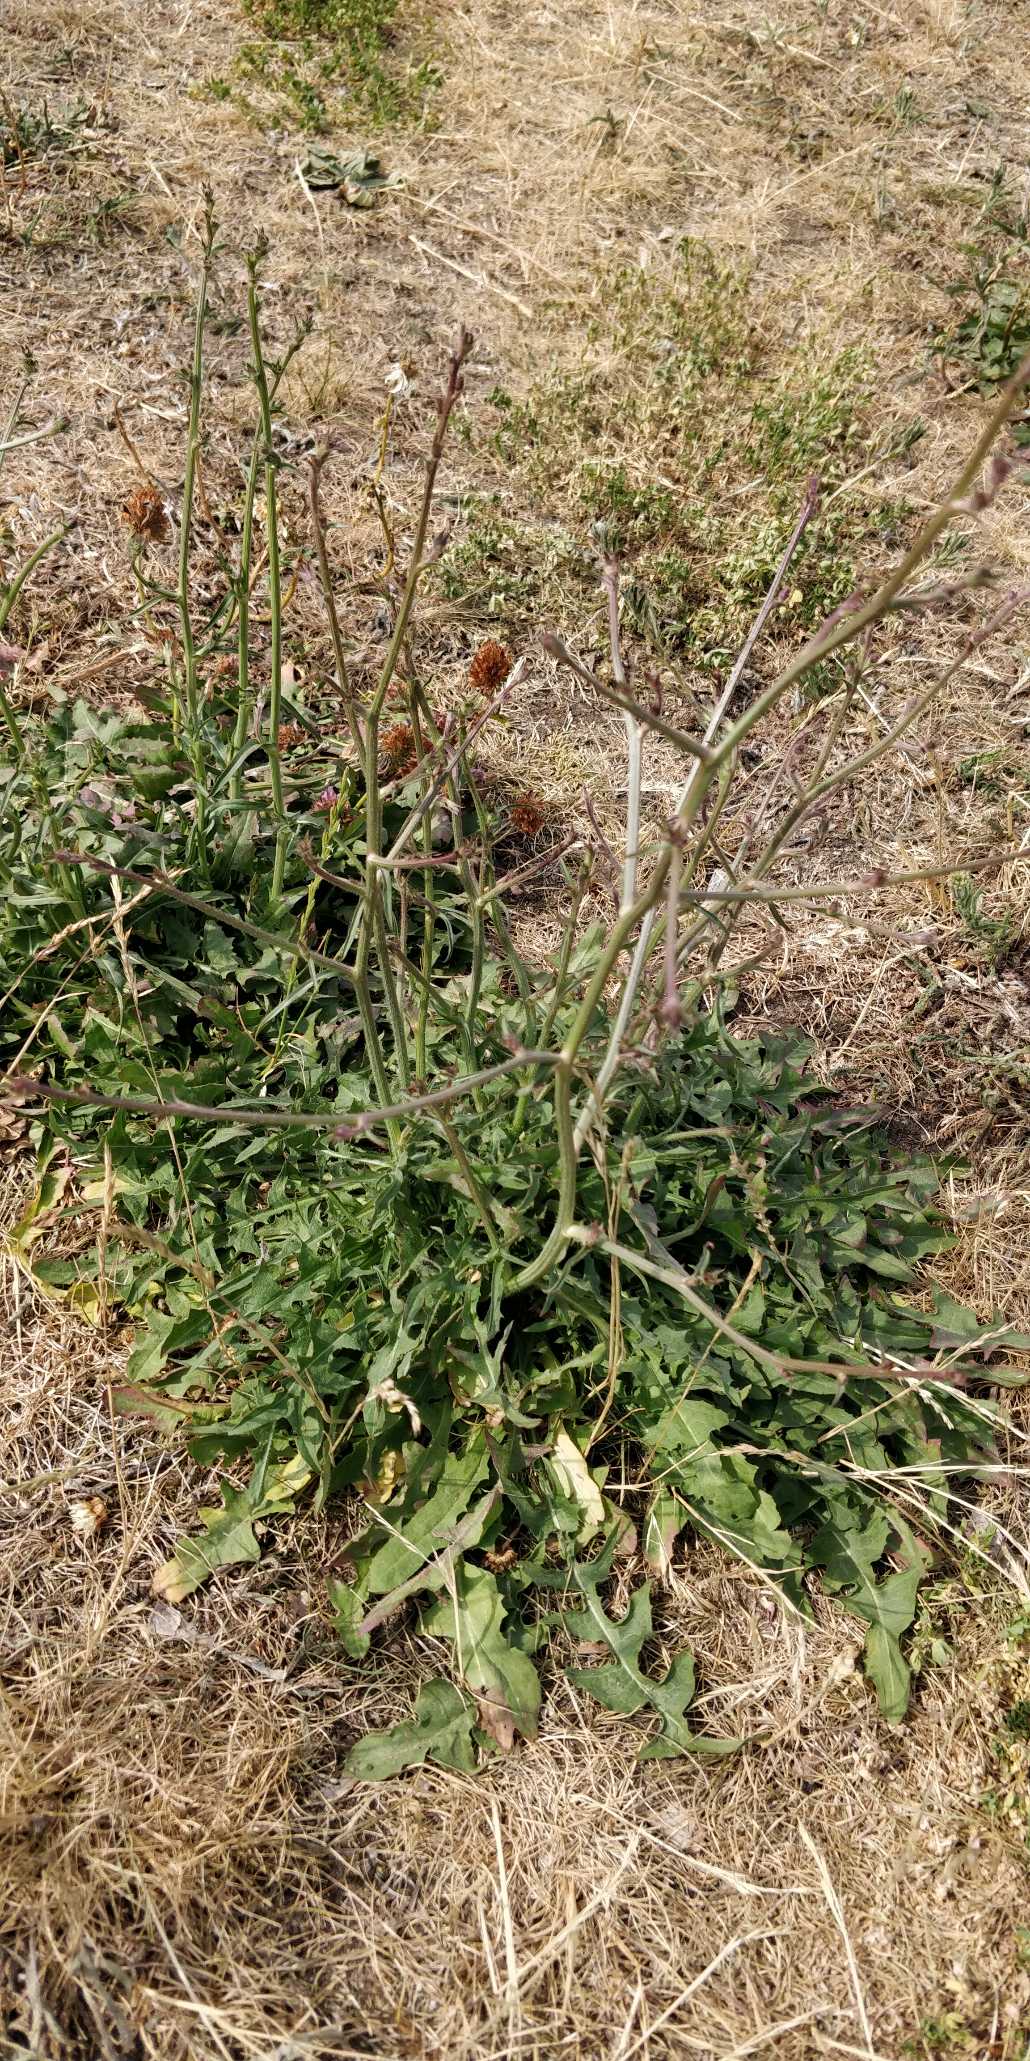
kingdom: Plantae
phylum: Tracheophyta
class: Magnoliopsida
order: Asterales
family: Asteraceae
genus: Cichorium
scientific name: Cichorium intybus
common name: Cikorie
